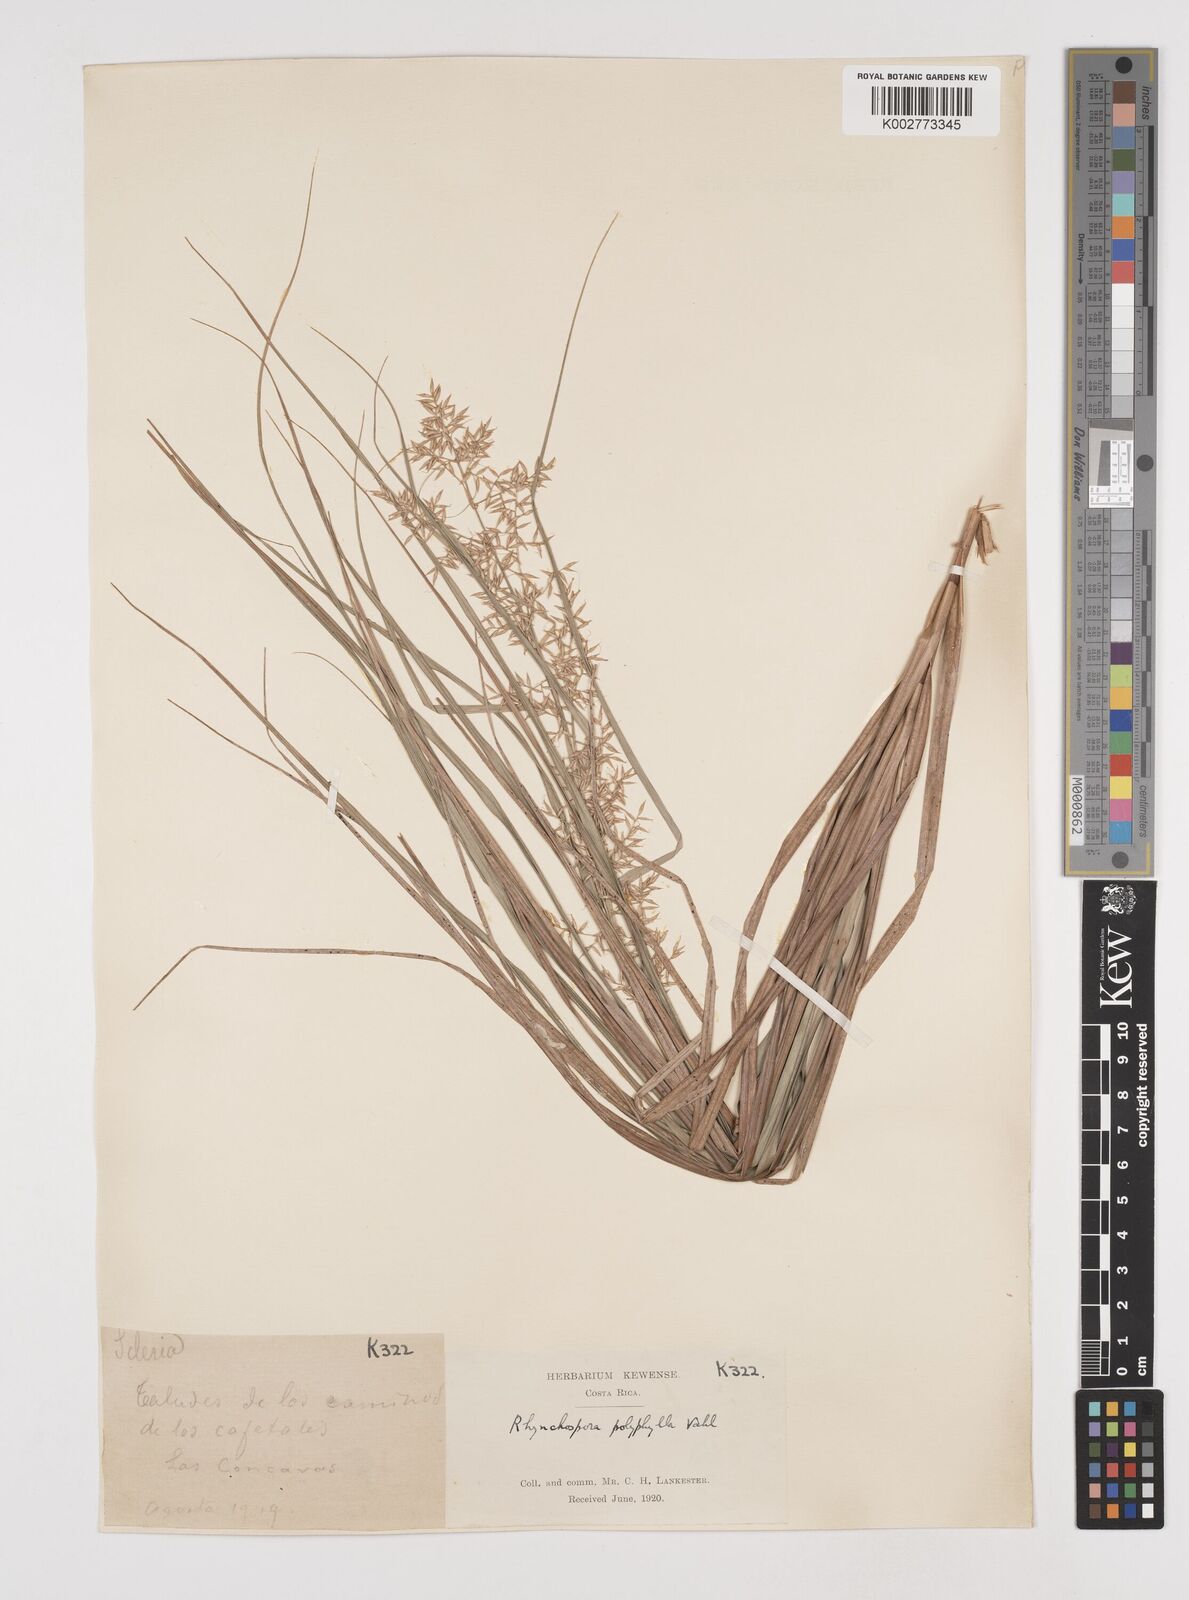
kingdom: Plantae
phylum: Tracheophyta
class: Liliopsida
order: Poales
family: Cyperaceae
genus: Rhynchospora
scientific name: Rhynchospora polyphylla
